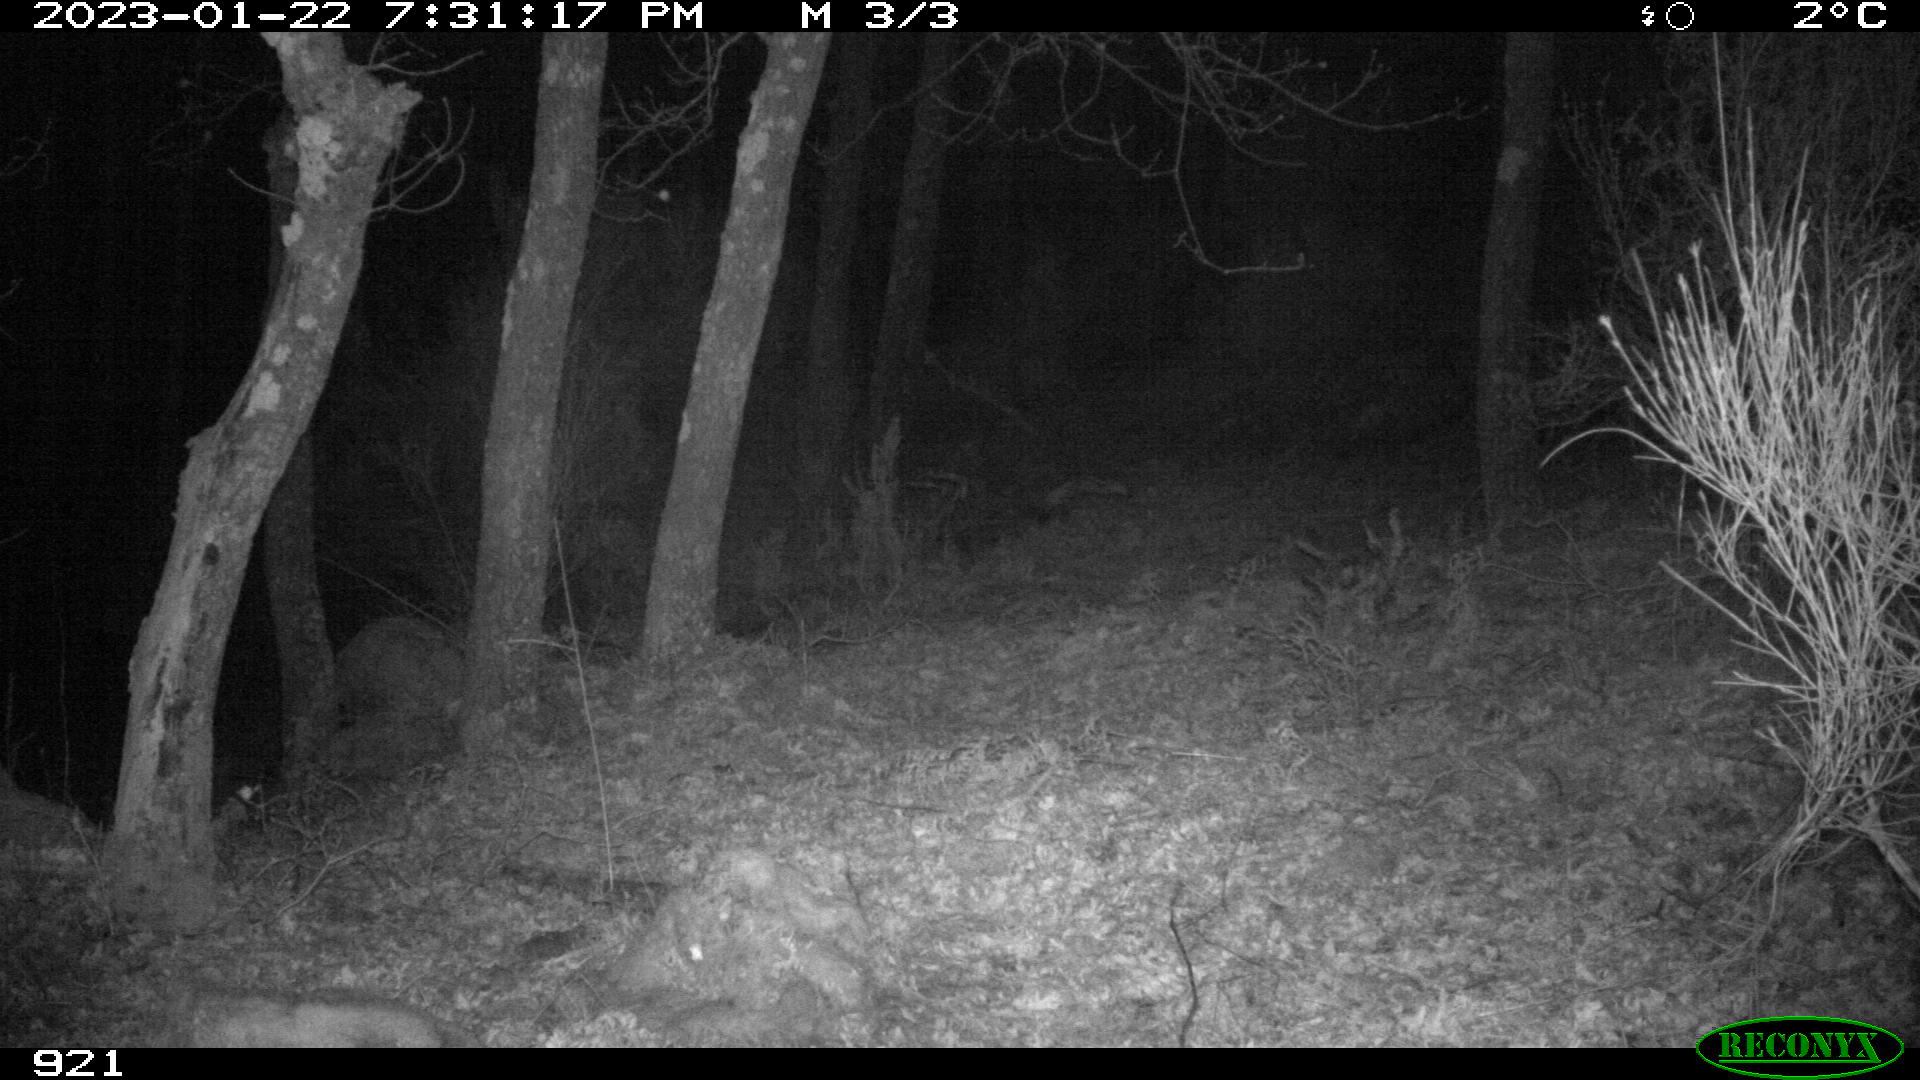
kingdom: Animalia
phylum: Chordata
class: Mammalia
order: Artiodactyla
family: Suidae
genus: Sus
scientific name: Sus scrofa
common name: Wild boar
